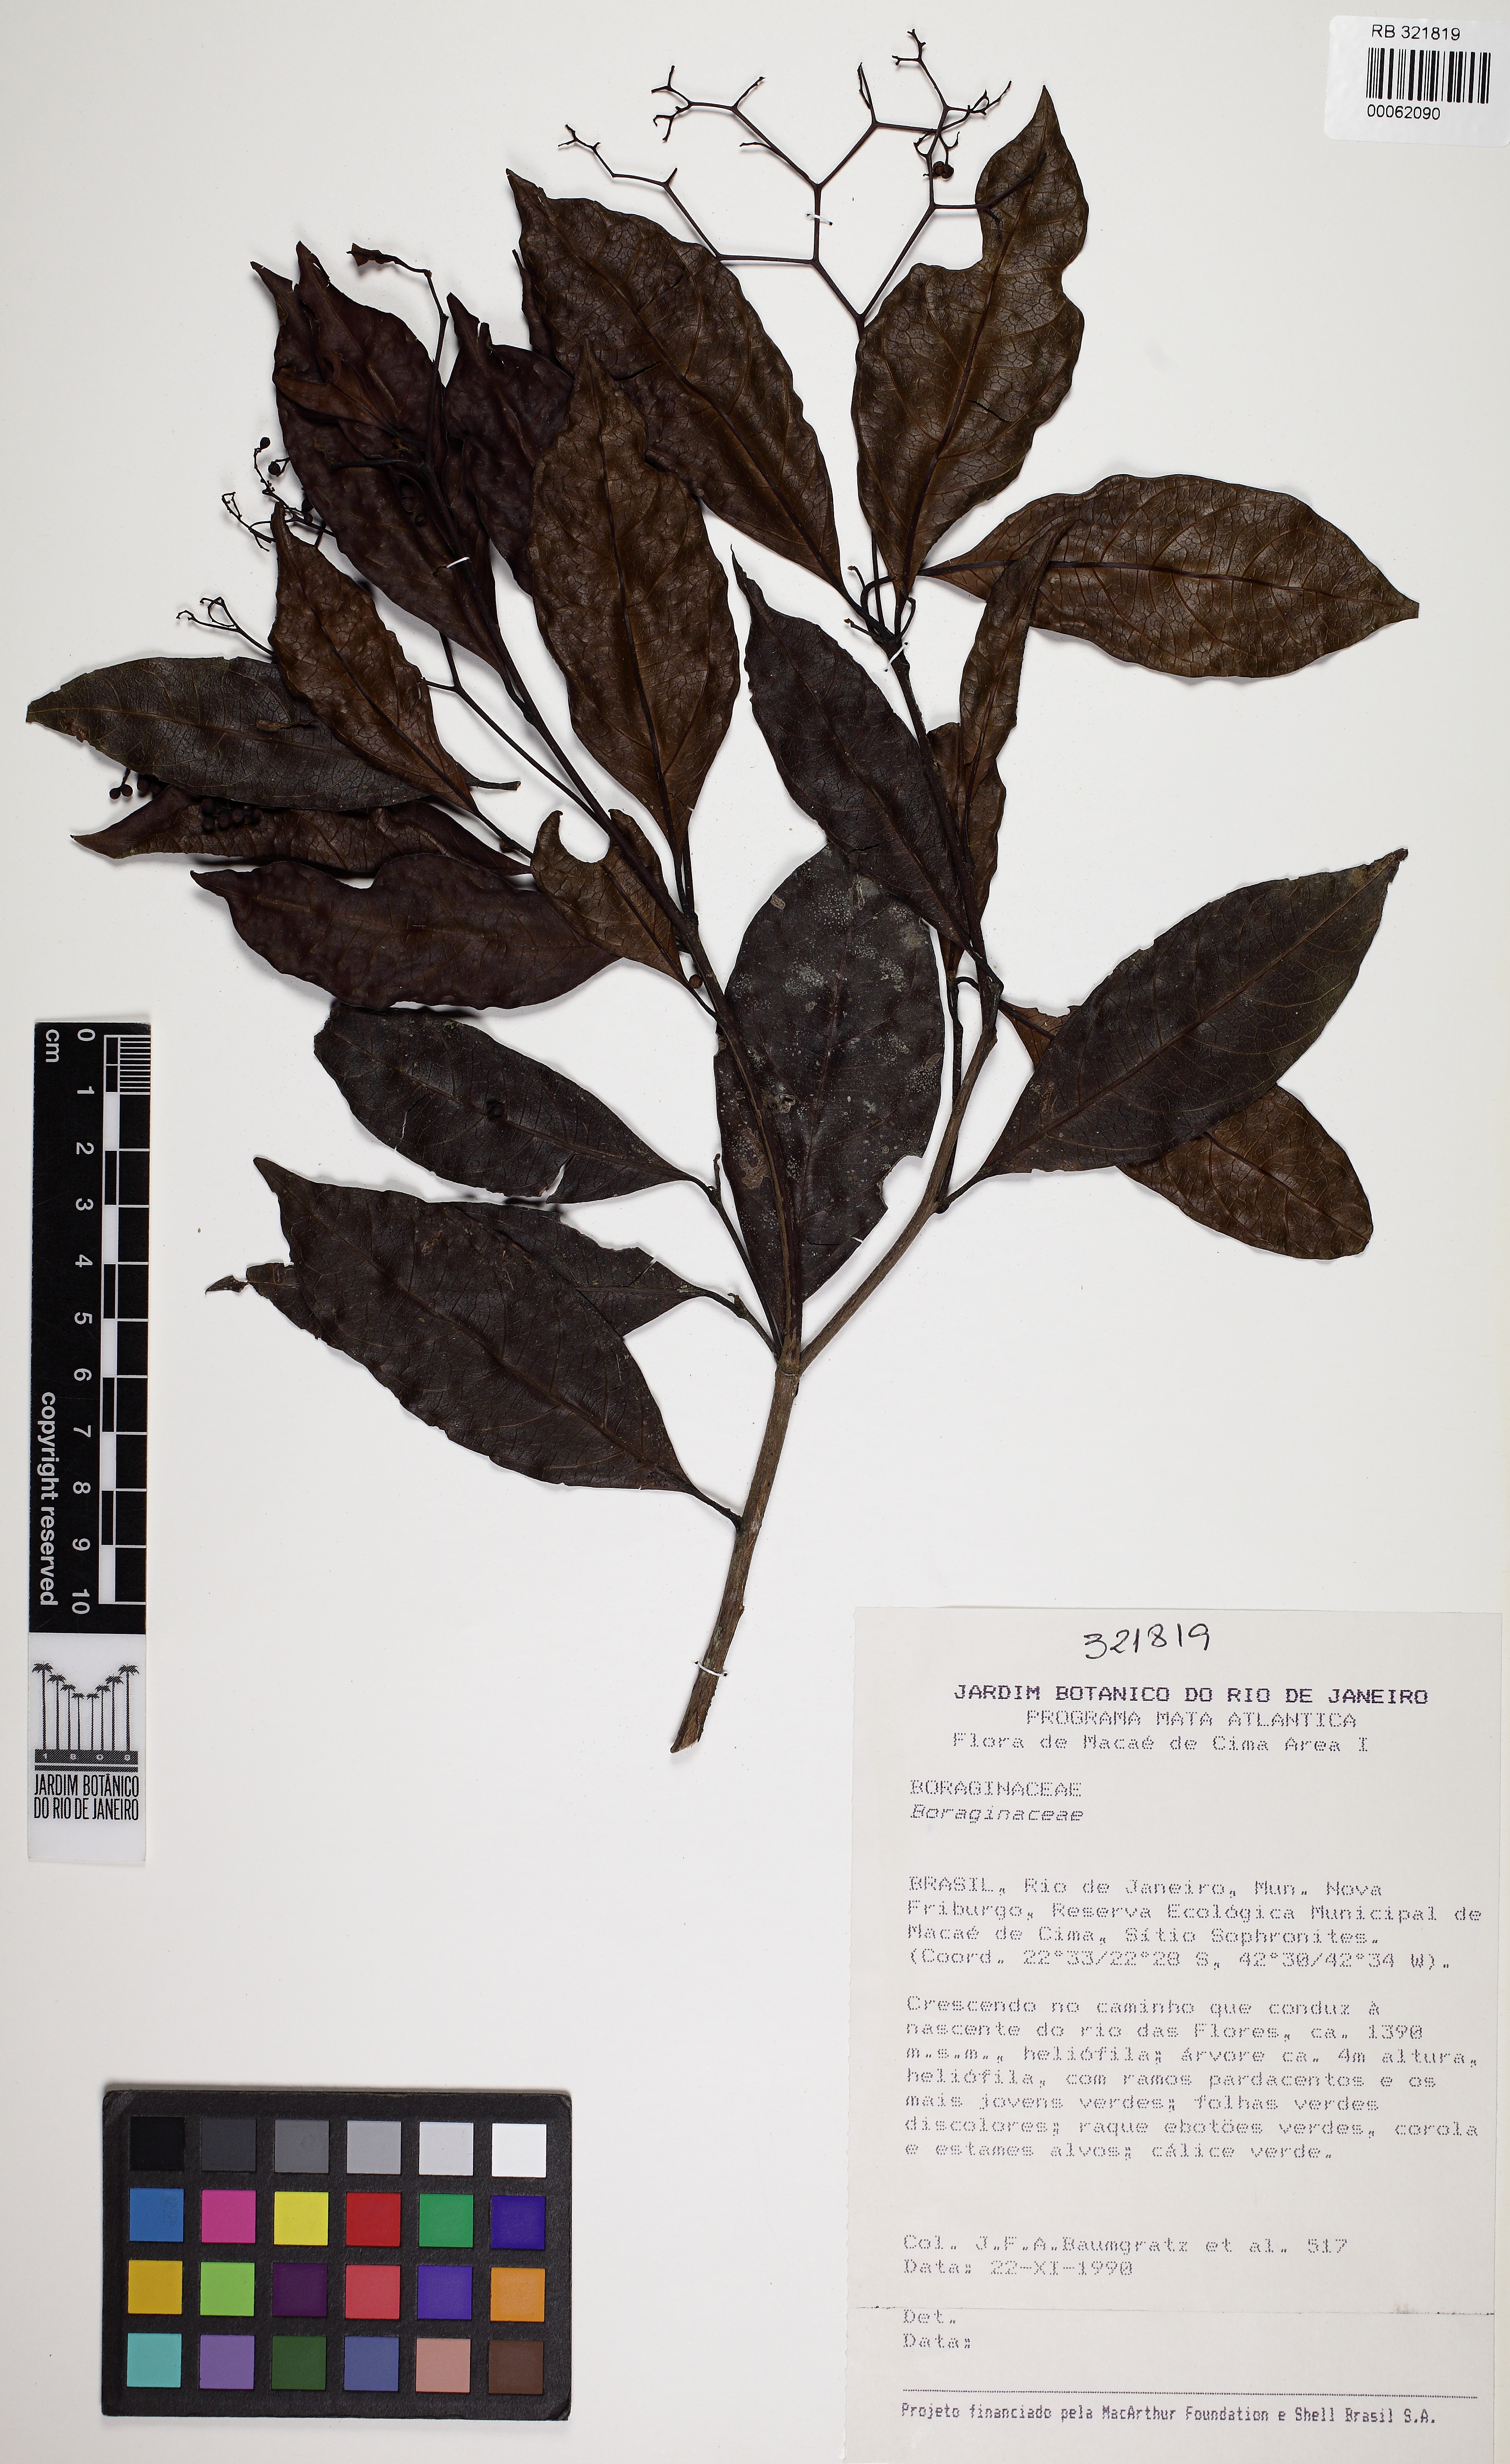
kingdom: Plantae
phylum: Tracheophyta
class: Magnoliopsida
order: Boraginales
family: Cordiaceae
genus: Cordia
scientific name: Cordia
